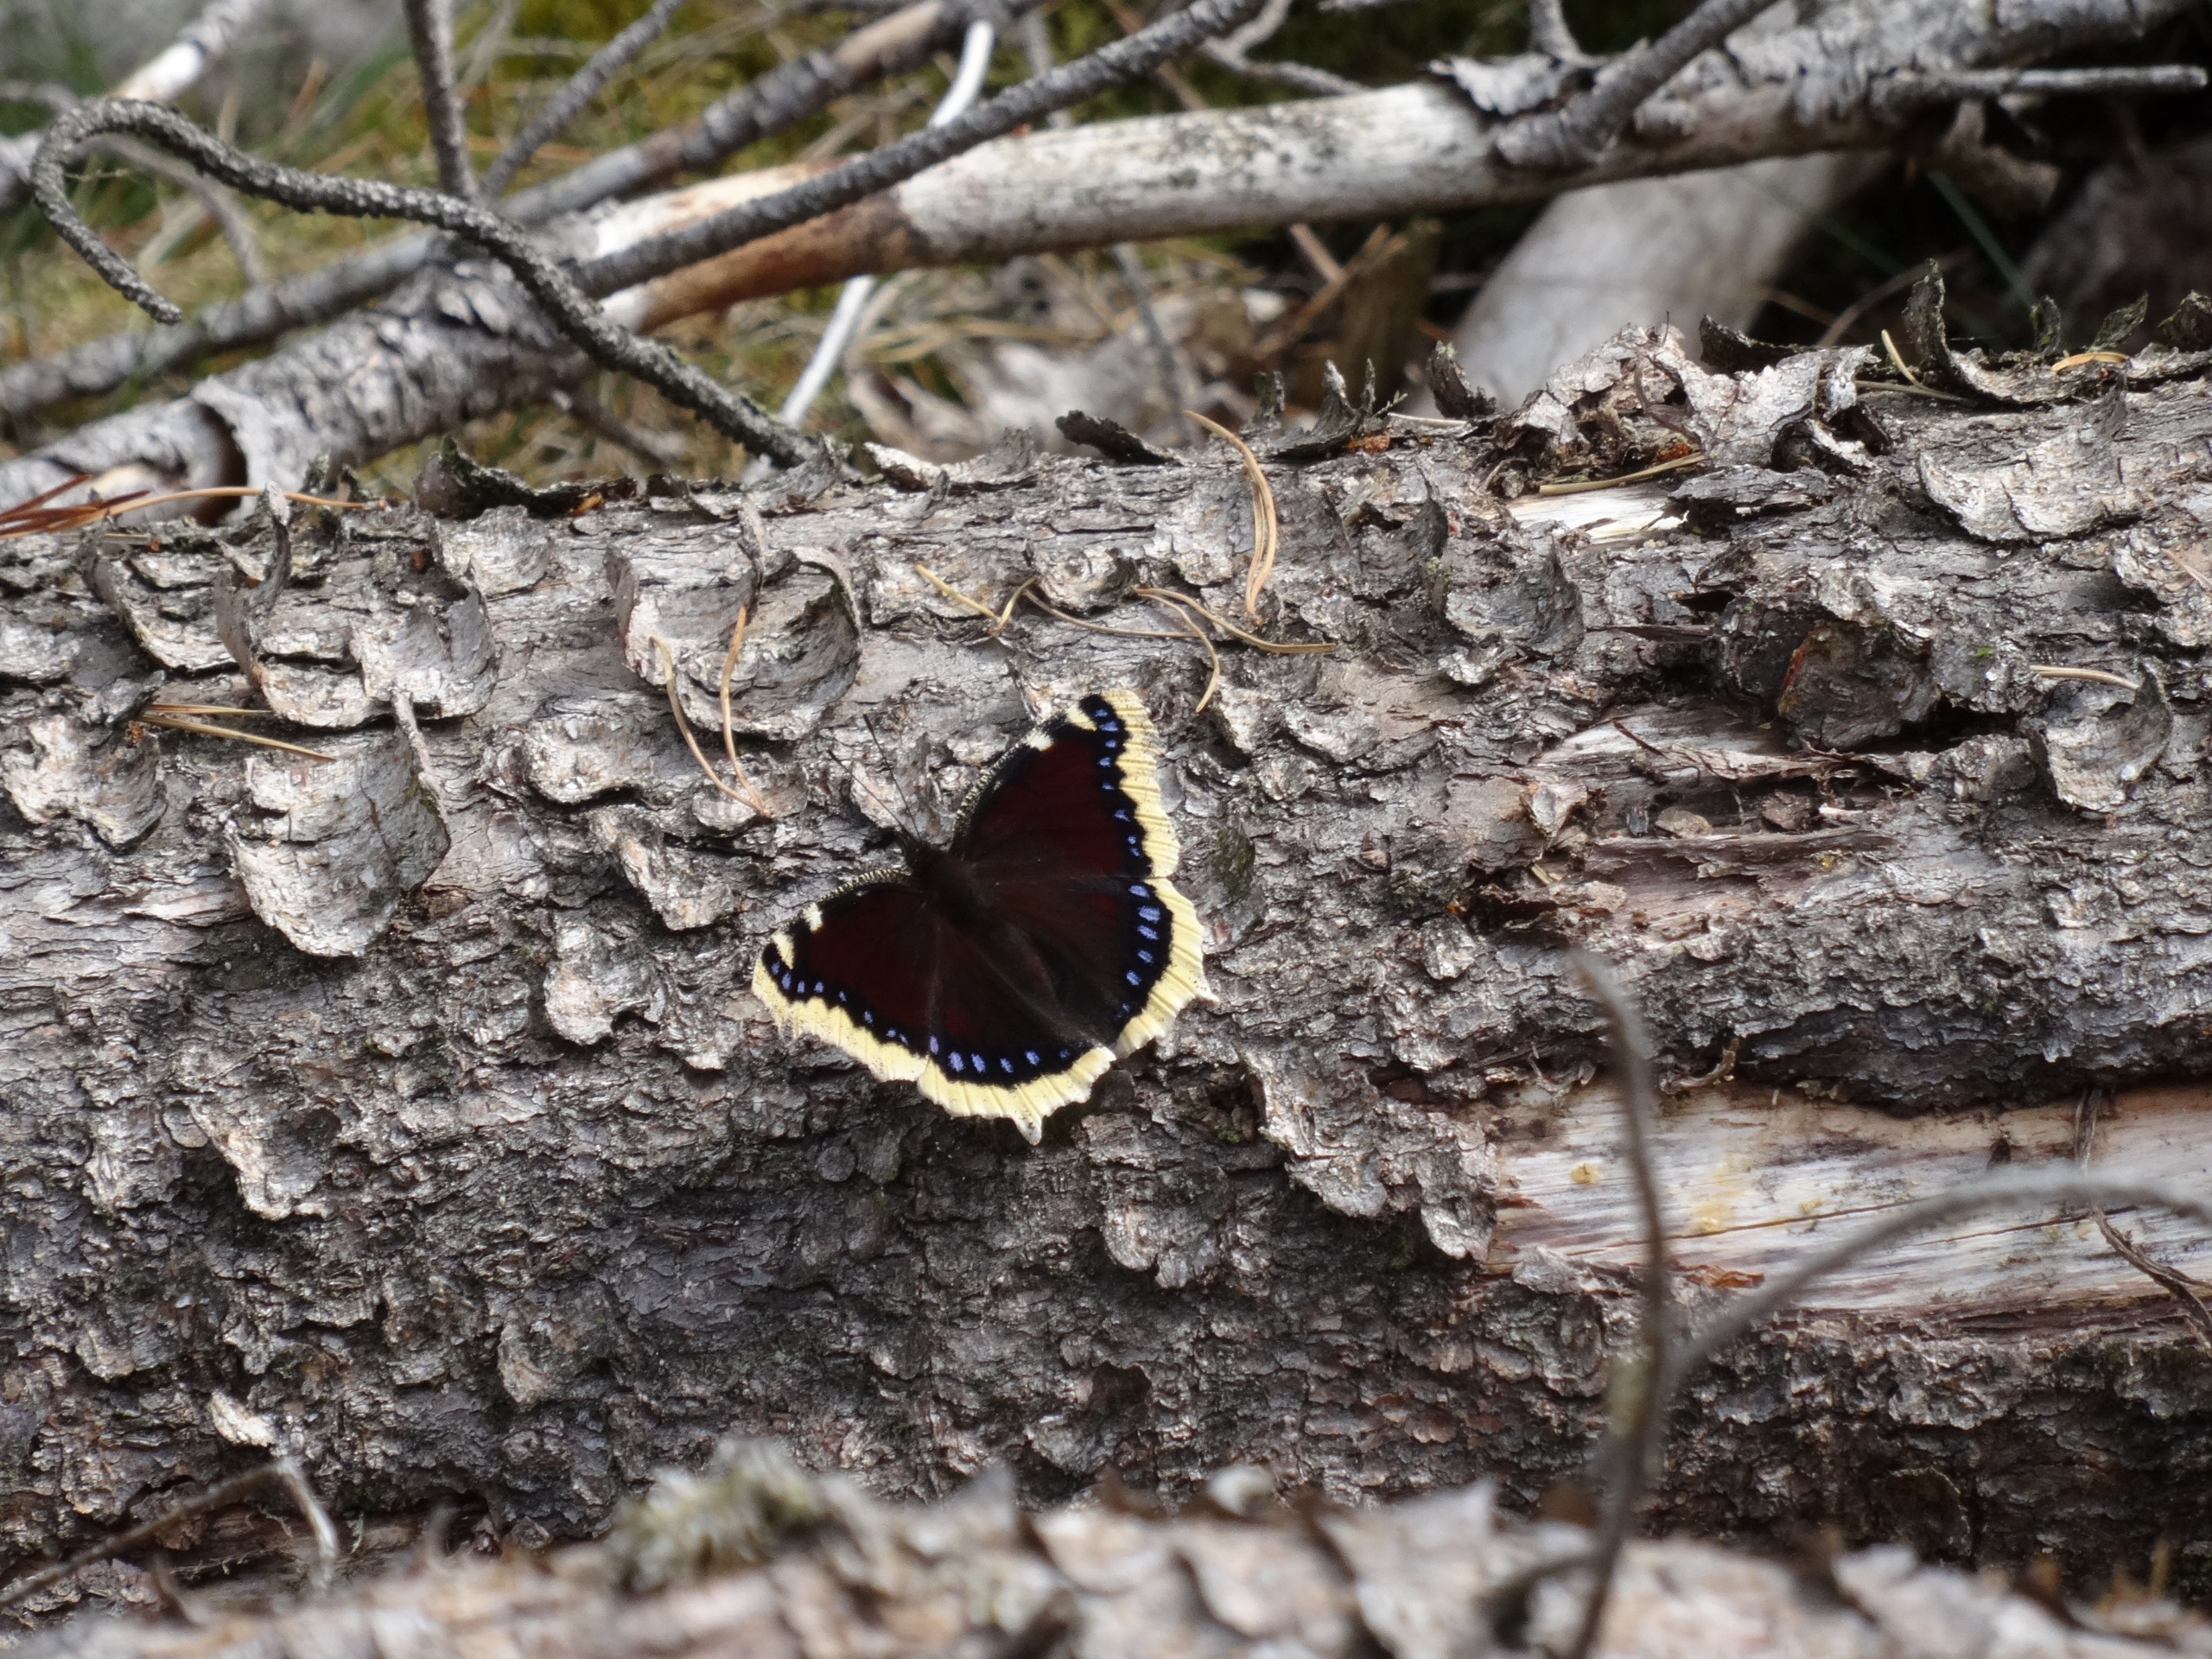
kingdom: Animalia
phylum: Arthropoda
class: Insecta
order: Lepidoptera
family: Nymphalidae
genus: Nymphalis
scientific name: Nymphalis antiopa
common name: Sørgekåbe
